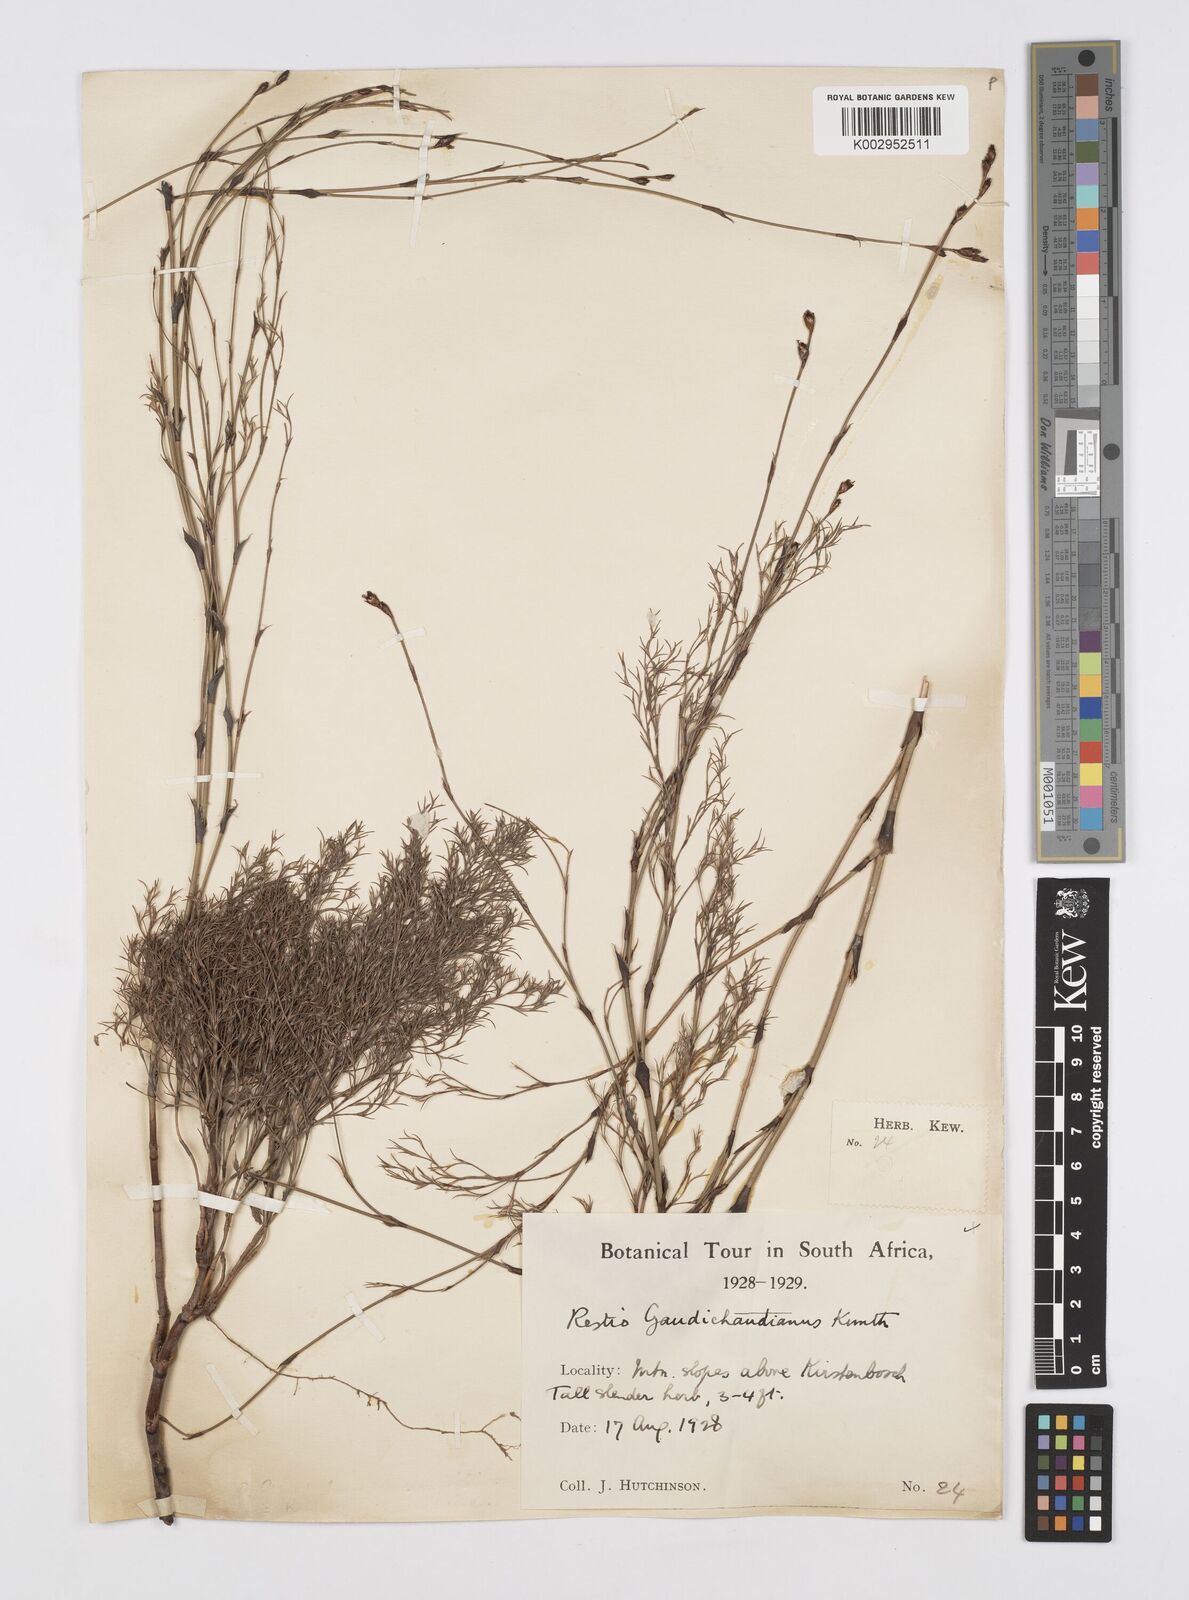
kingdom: Plantae
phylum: Tracheophyta
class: Liliopsida
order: Poales
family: Restionaceae
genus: Restio
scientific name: Restio gaudichaudianus
